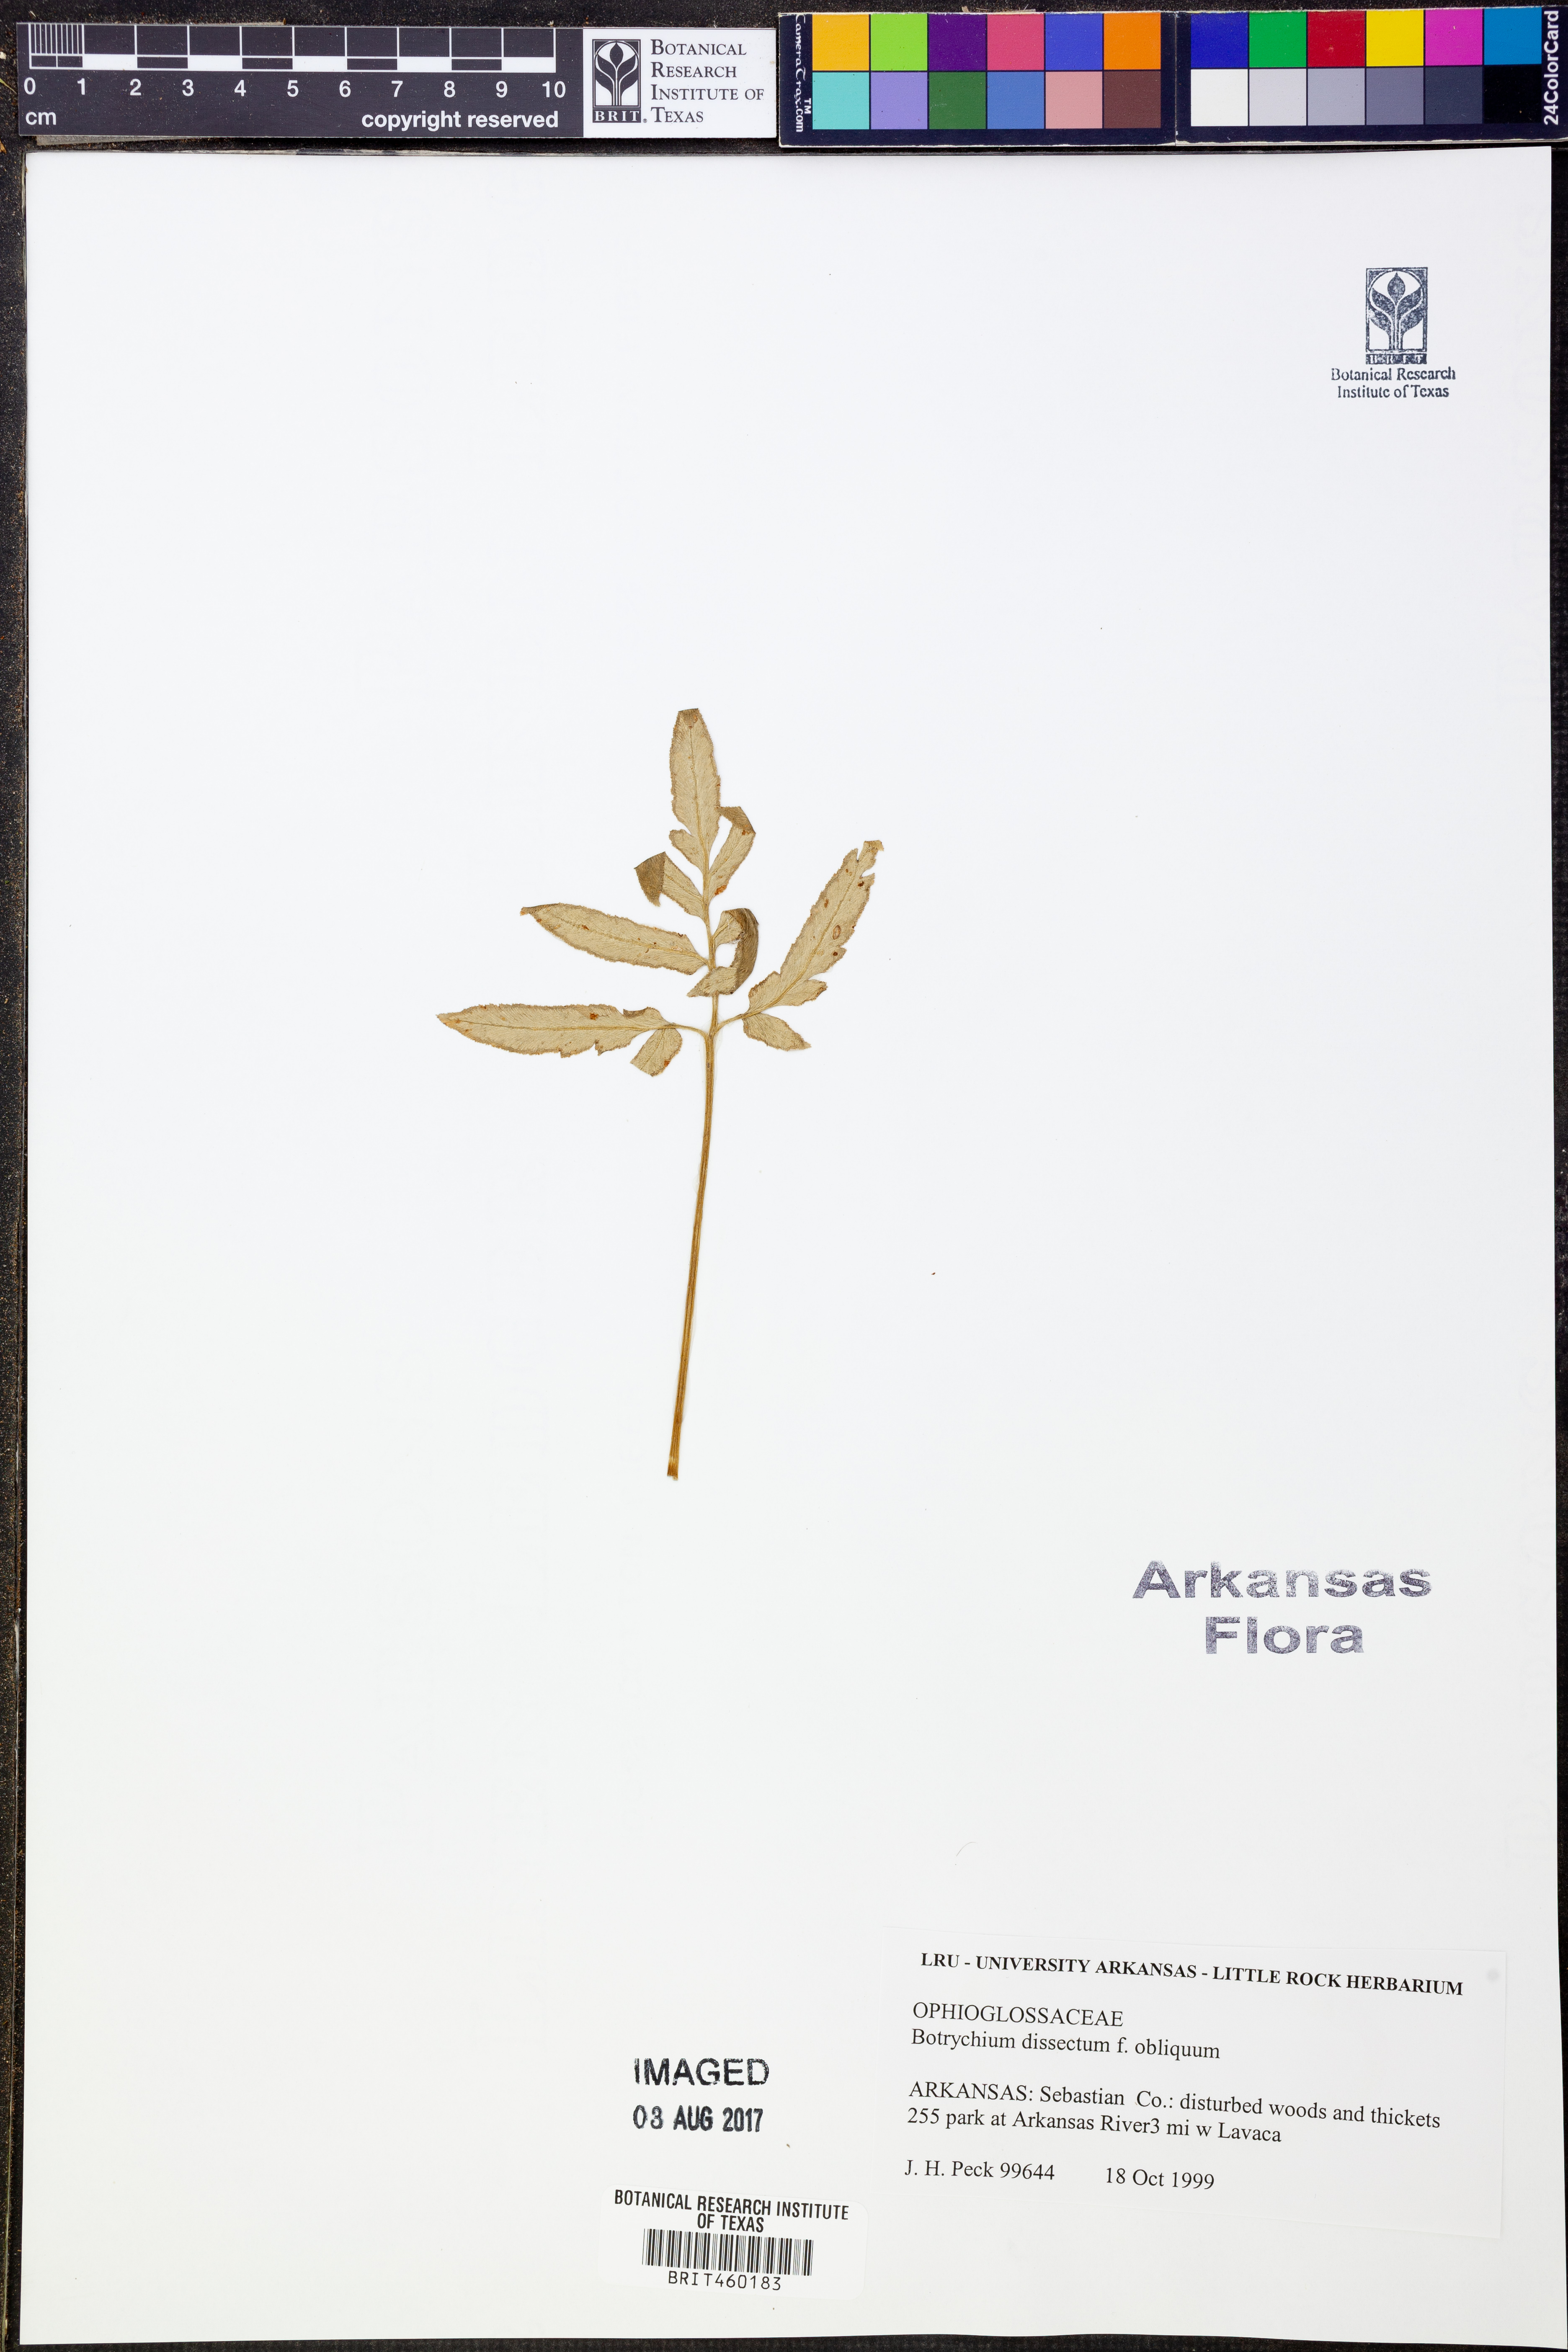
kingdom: Plantae
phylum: Tracheophyta
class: Polypodiopsida
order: Ophioglossales
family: Ophioglossaceae
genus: Sceptridium
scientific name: Sceptridium dissectum
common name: Cut-leaved grapefern
